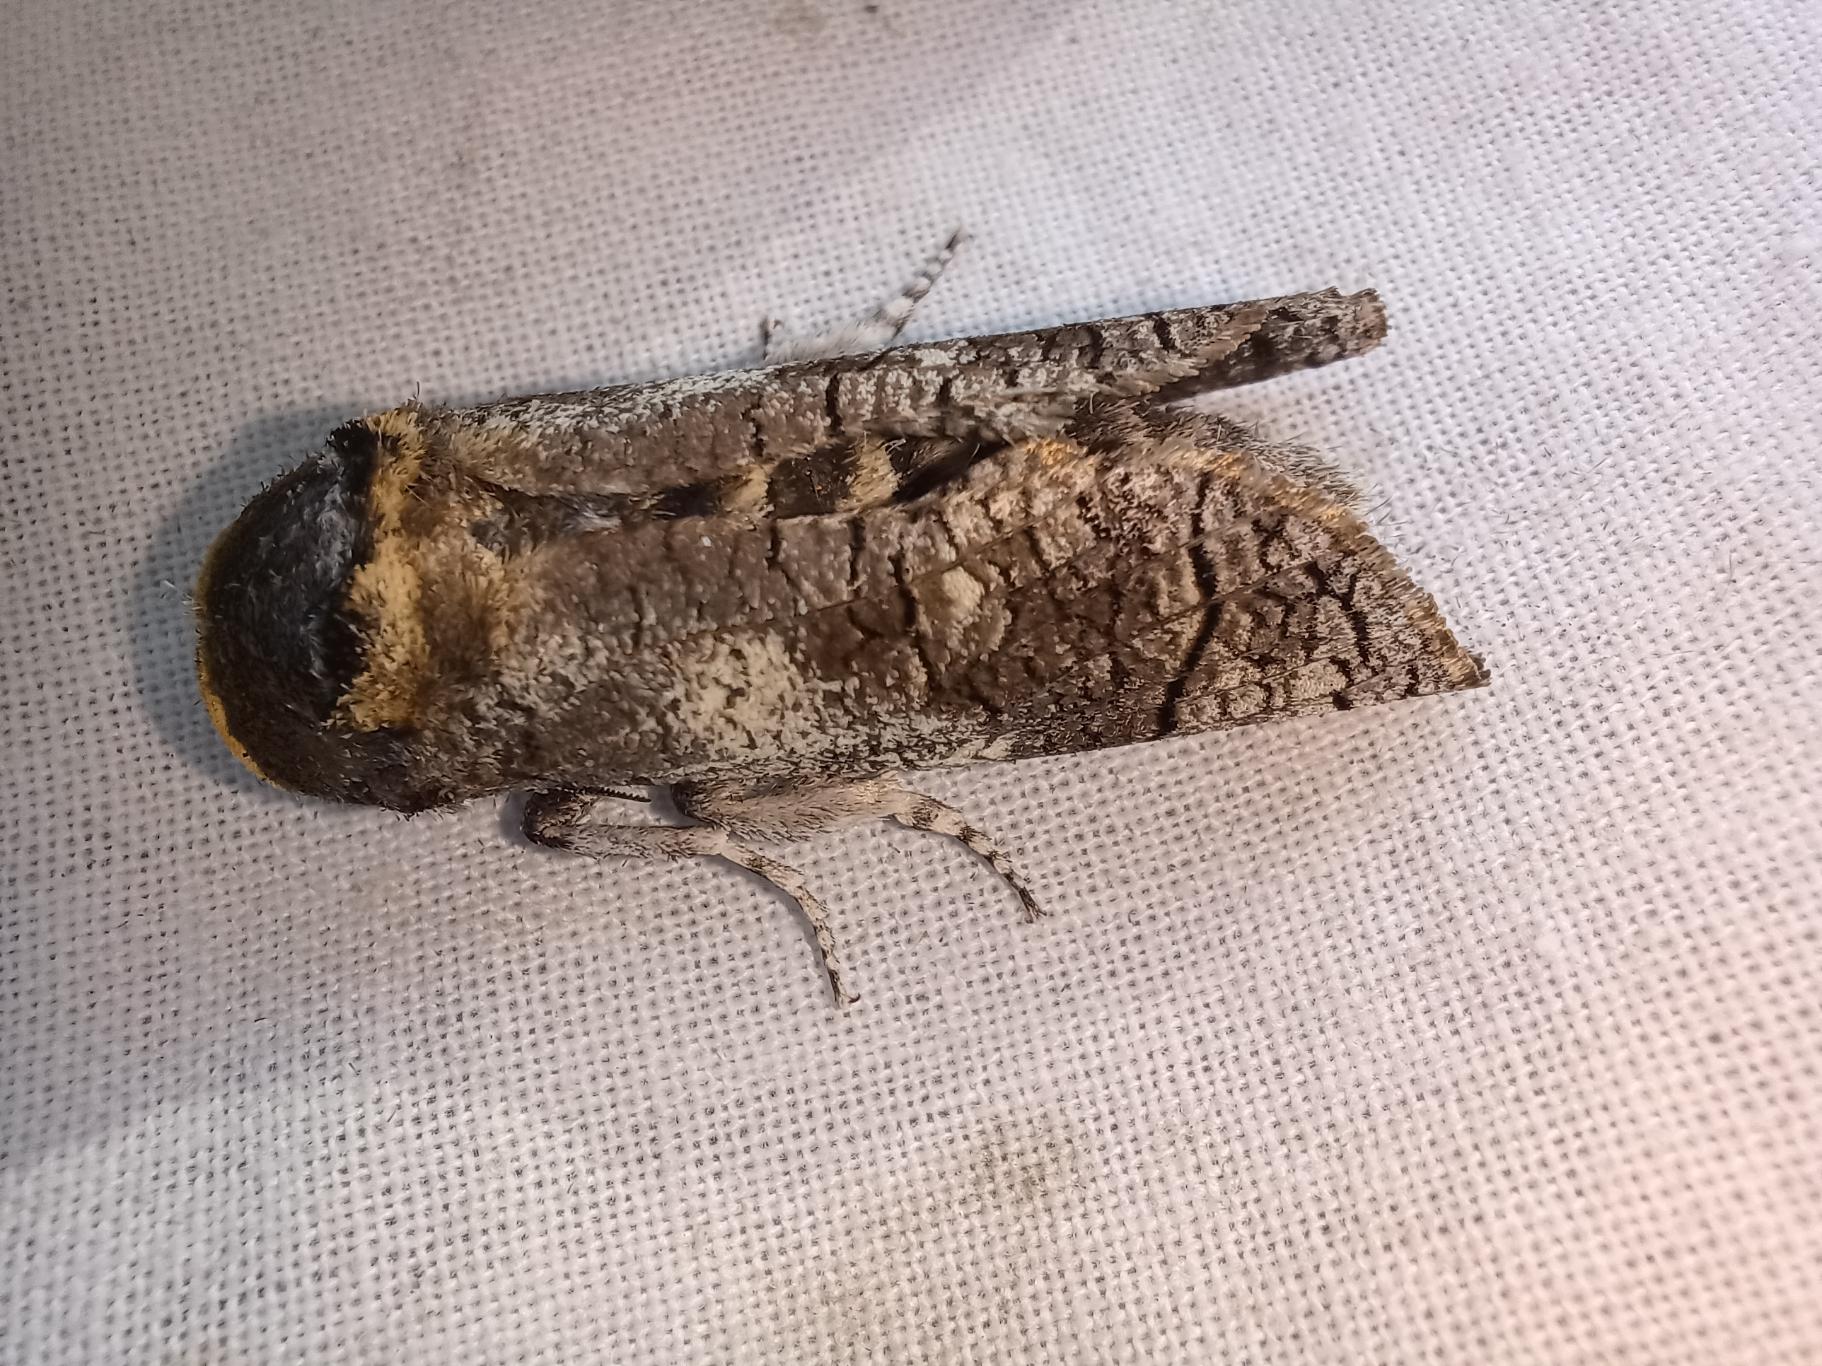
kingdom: Animalia
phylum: Arthropoda
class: Insecta
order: Lepidoptera
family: Cossidae
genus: Cossus
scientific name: Cossus cossus
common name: Pileborer
